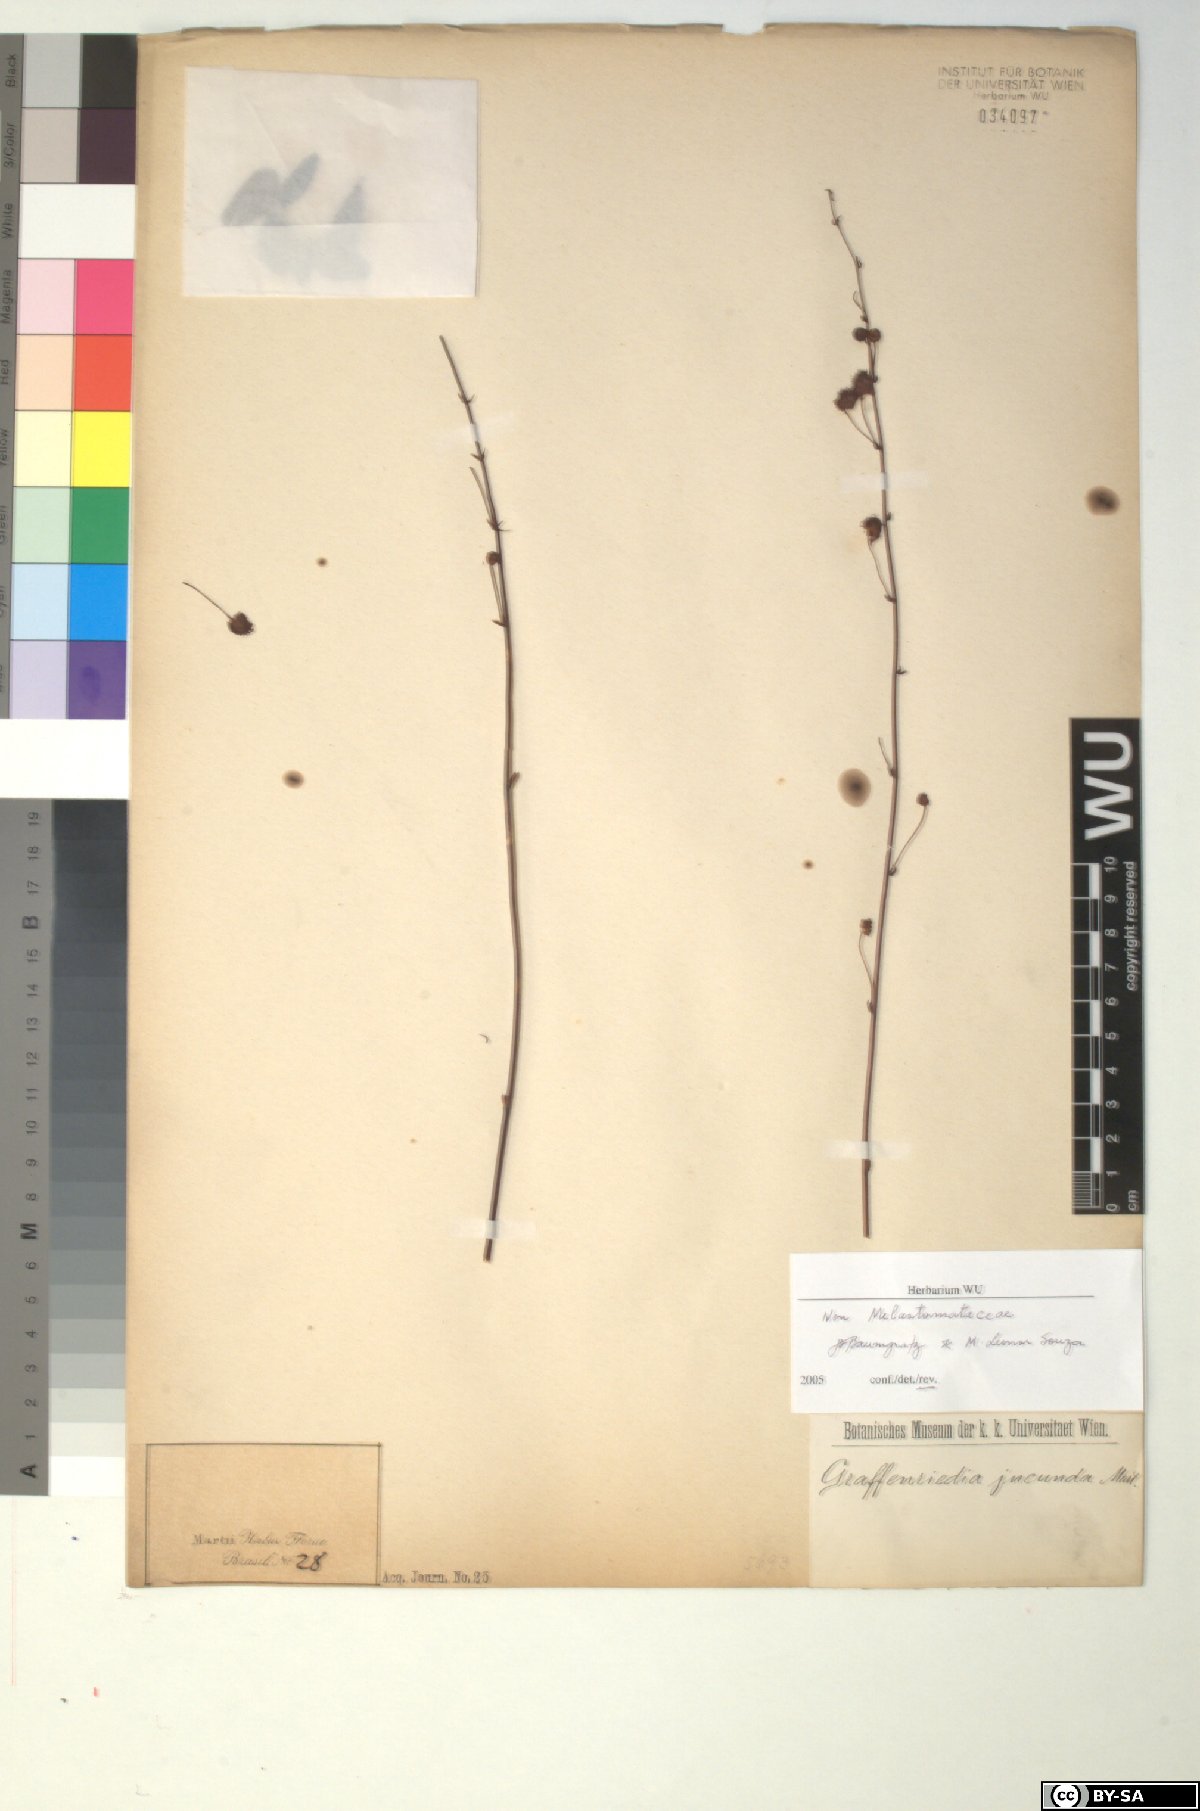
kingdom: Plantae
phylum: Tracheophyta
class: Magnoliopsida
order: Fabales
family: Fabaceae
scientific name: Fabaceae
